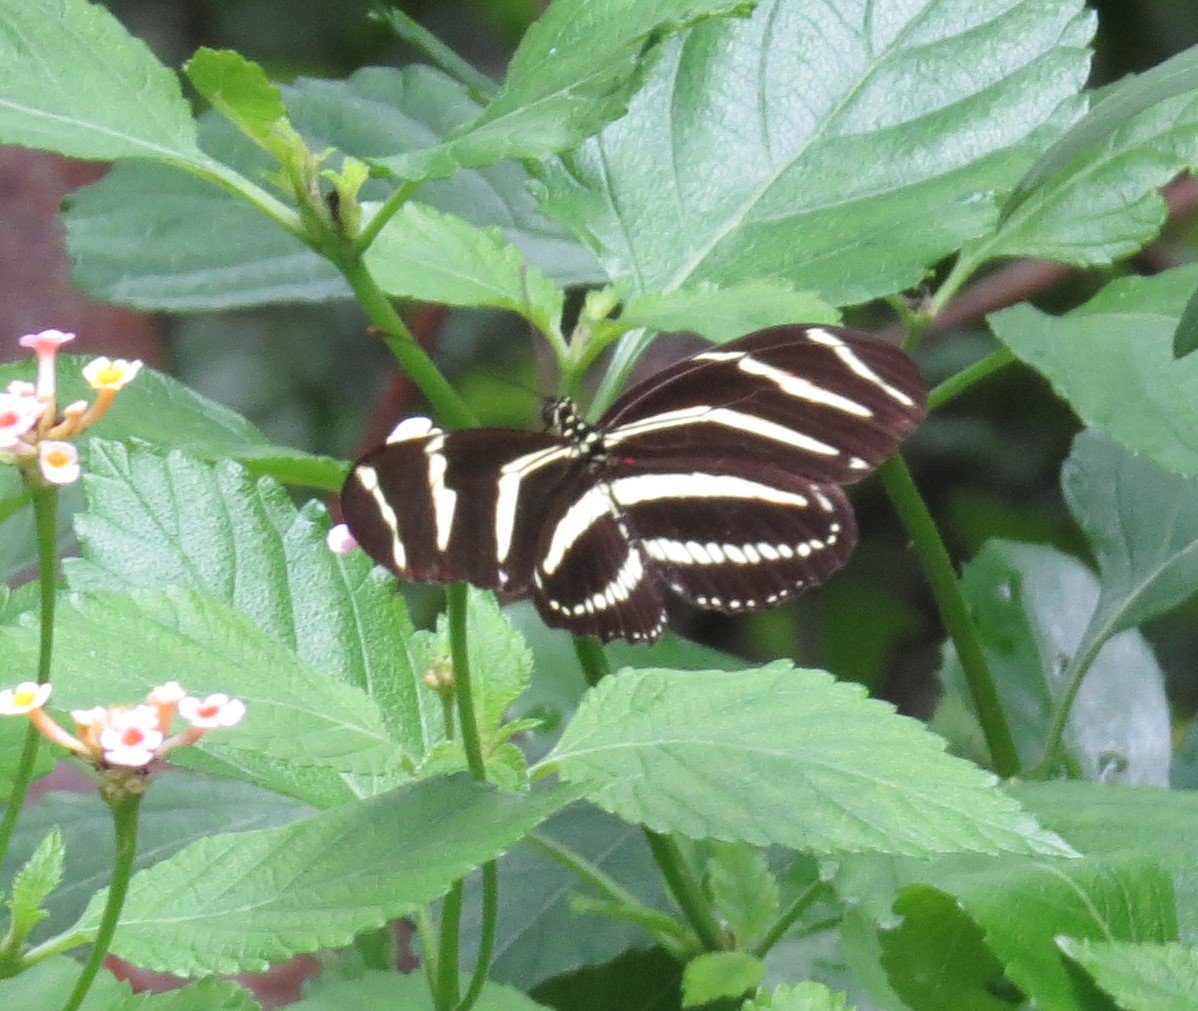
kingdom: Animalia
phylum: Arthropoda
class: Insecta
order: Lepidoptera
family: Nymphalidae
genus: Heliconius
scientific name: Heliconius charithonia
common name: Zebra Longwing
